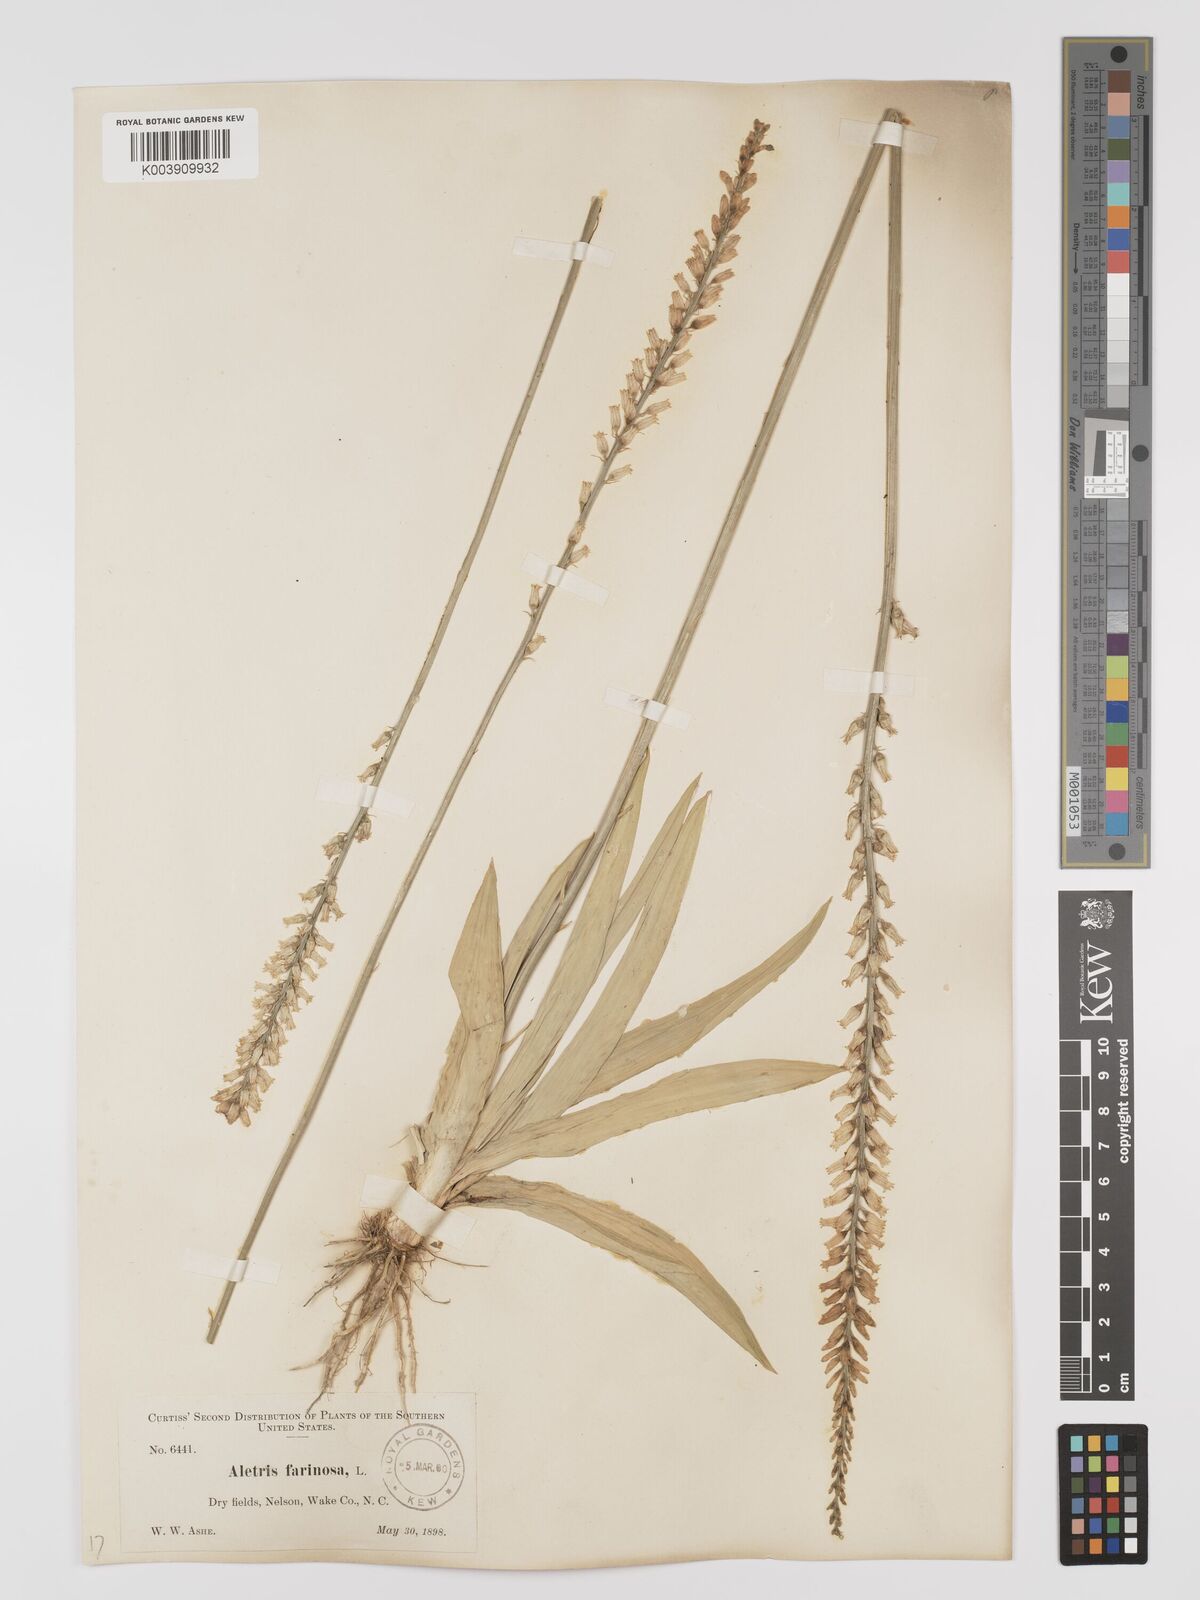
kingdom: Plantae
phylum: Tracheophyta
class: Liliopsida
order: Dioscoreales
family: Nartheciaceae
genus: Aletris
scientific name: Aletris farinosa
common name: Colicroot
